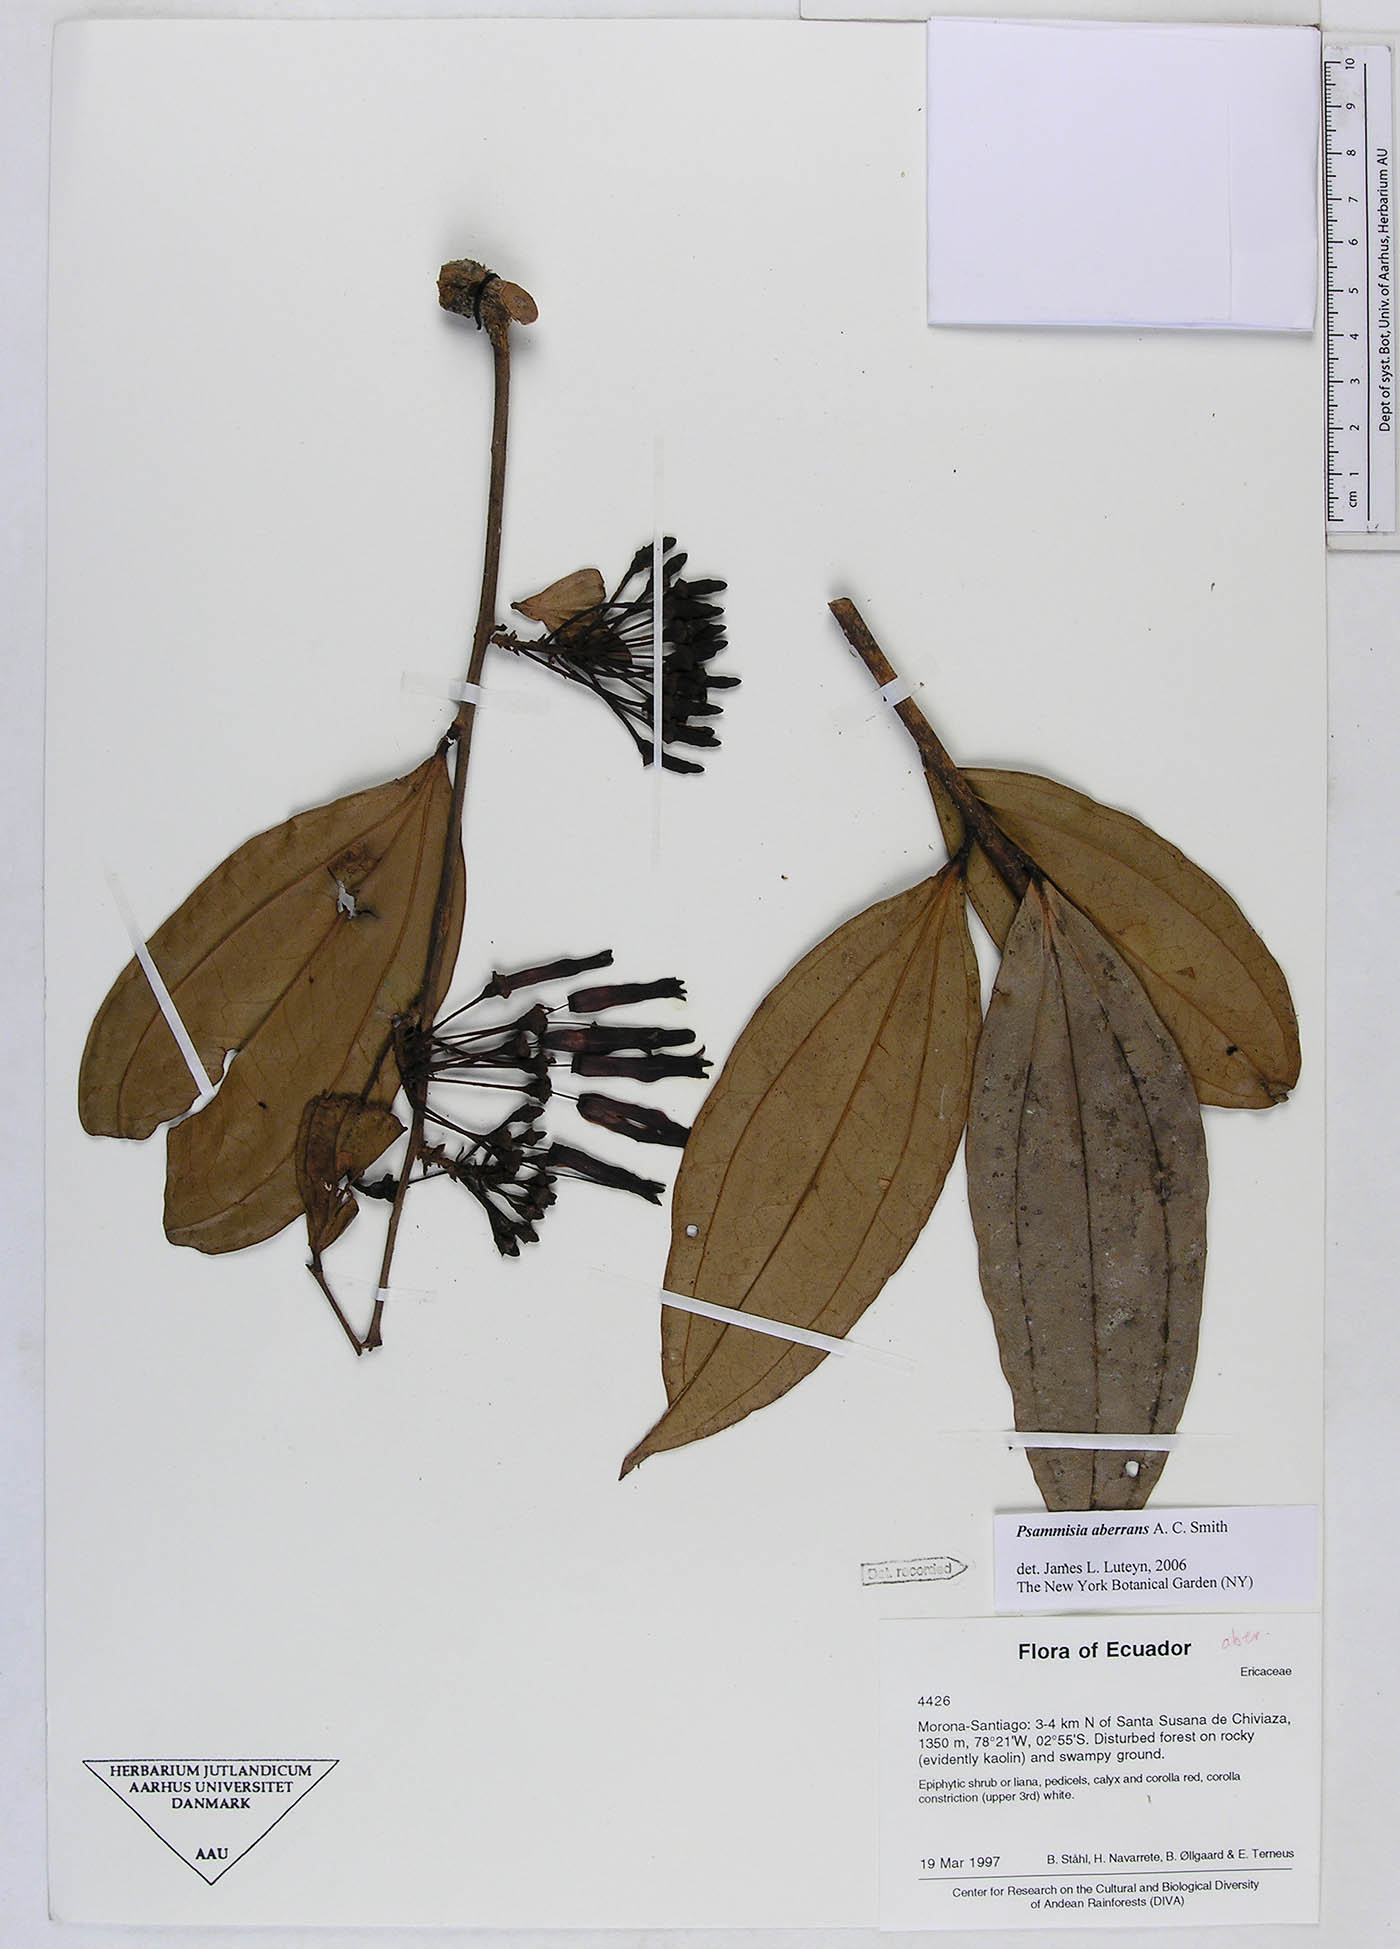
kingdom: Plantae
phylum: Tracheophyta
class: Magnoliopsida
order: Ericales
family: Ericaceae
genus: Psammisia
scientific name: Psammisia aberrans
